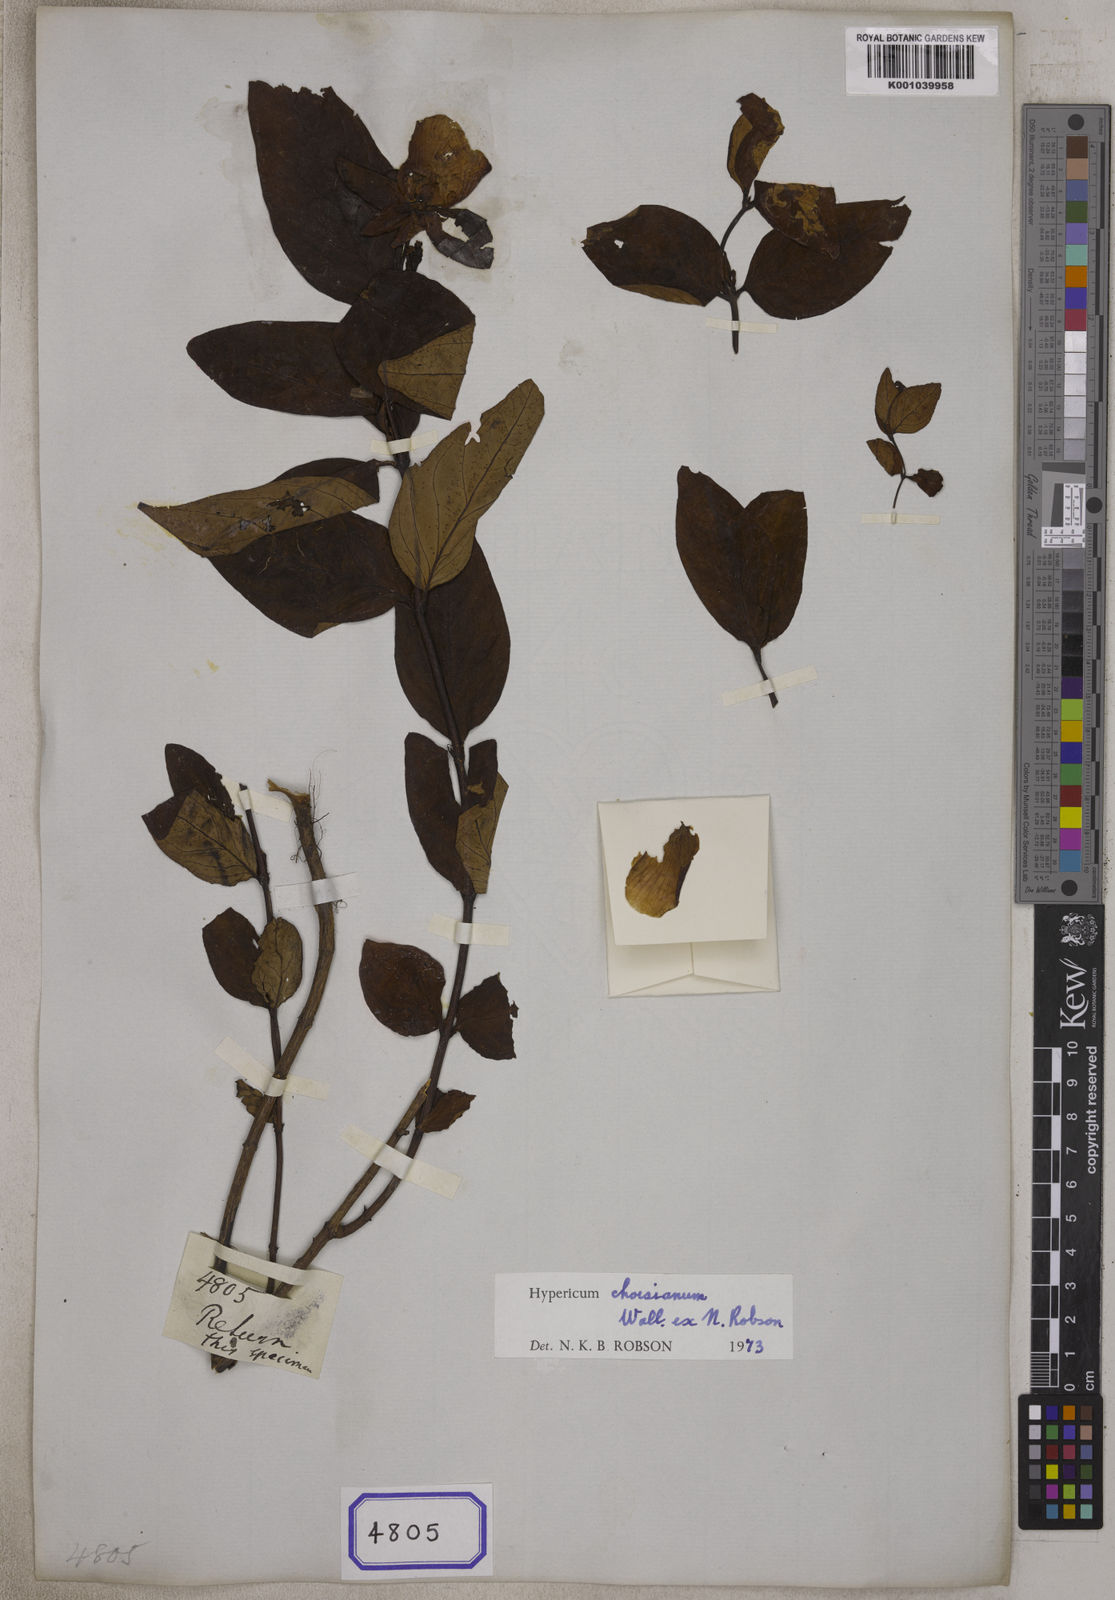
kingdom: Plantae
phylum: Tracheophyta
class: Magnoliopsida
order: Malpighiales
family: Hypericaceae
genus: Hypericum
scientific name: Hypericum
